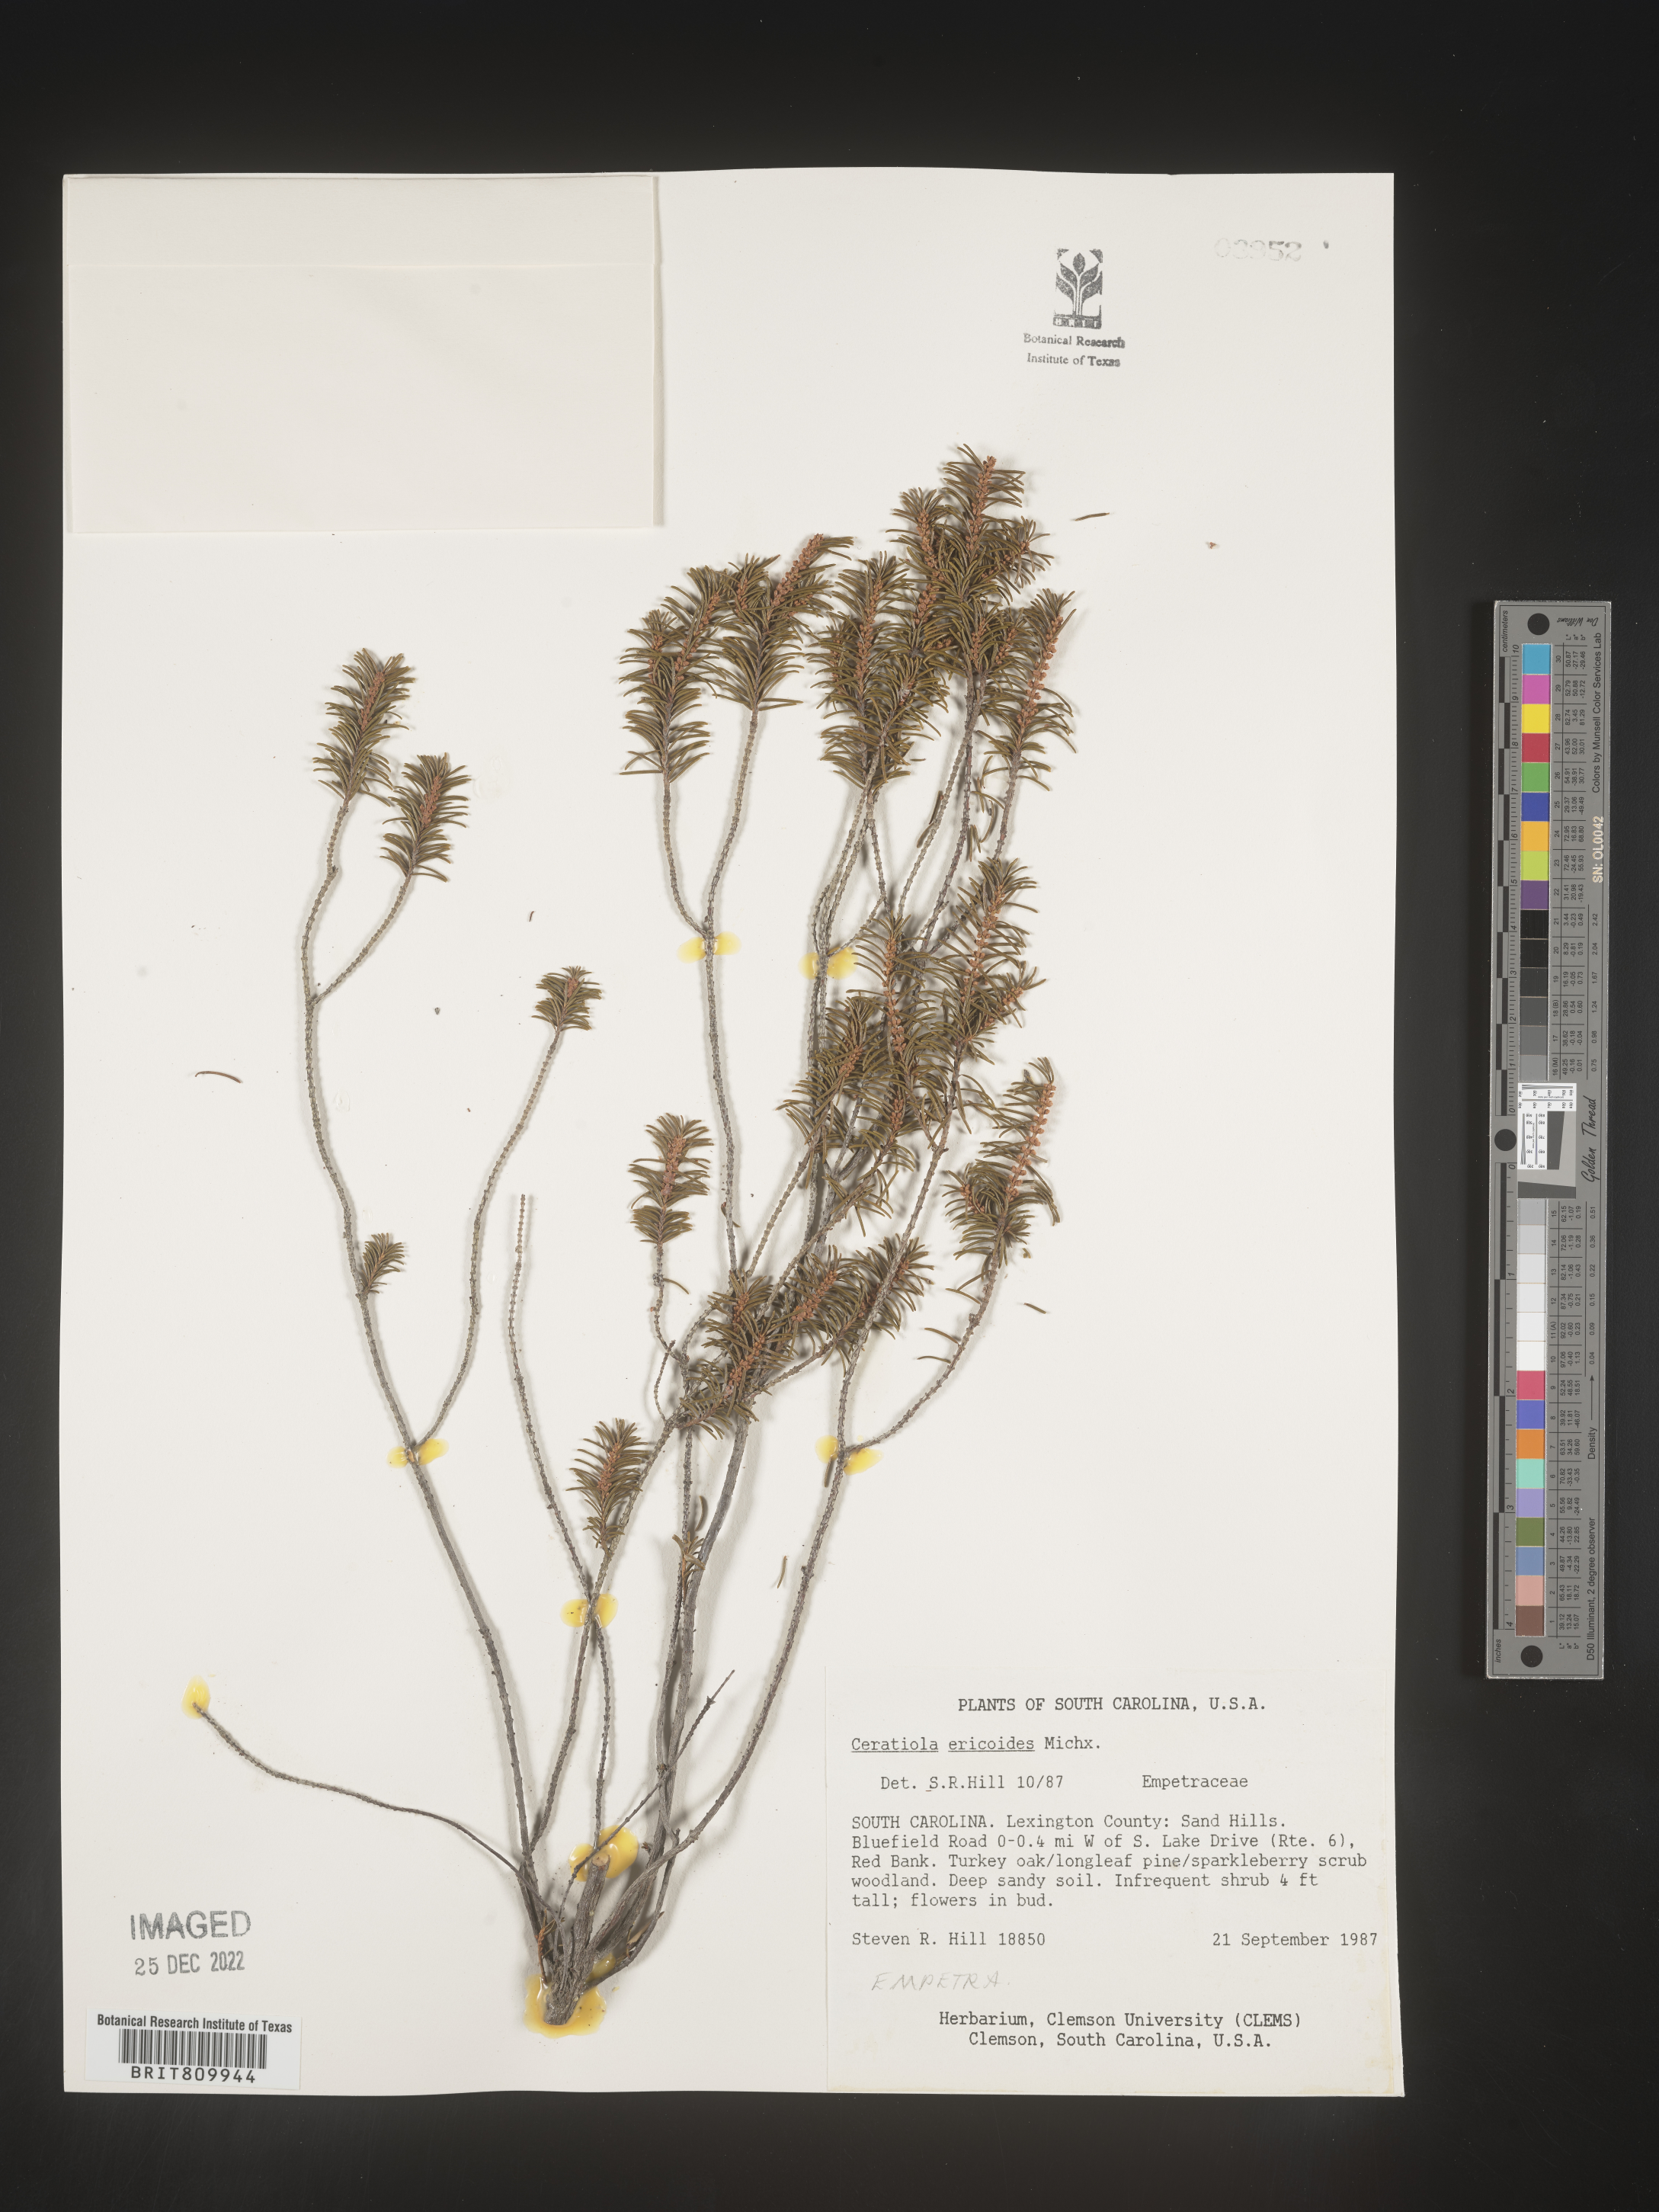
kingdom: Plantae
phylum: Tracheophyta
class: Magnoliopsida
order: Ericales
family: Ericaceae
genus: Ceratiola
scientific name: Ceratiola ericoides
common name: Sandhill-rosemary
